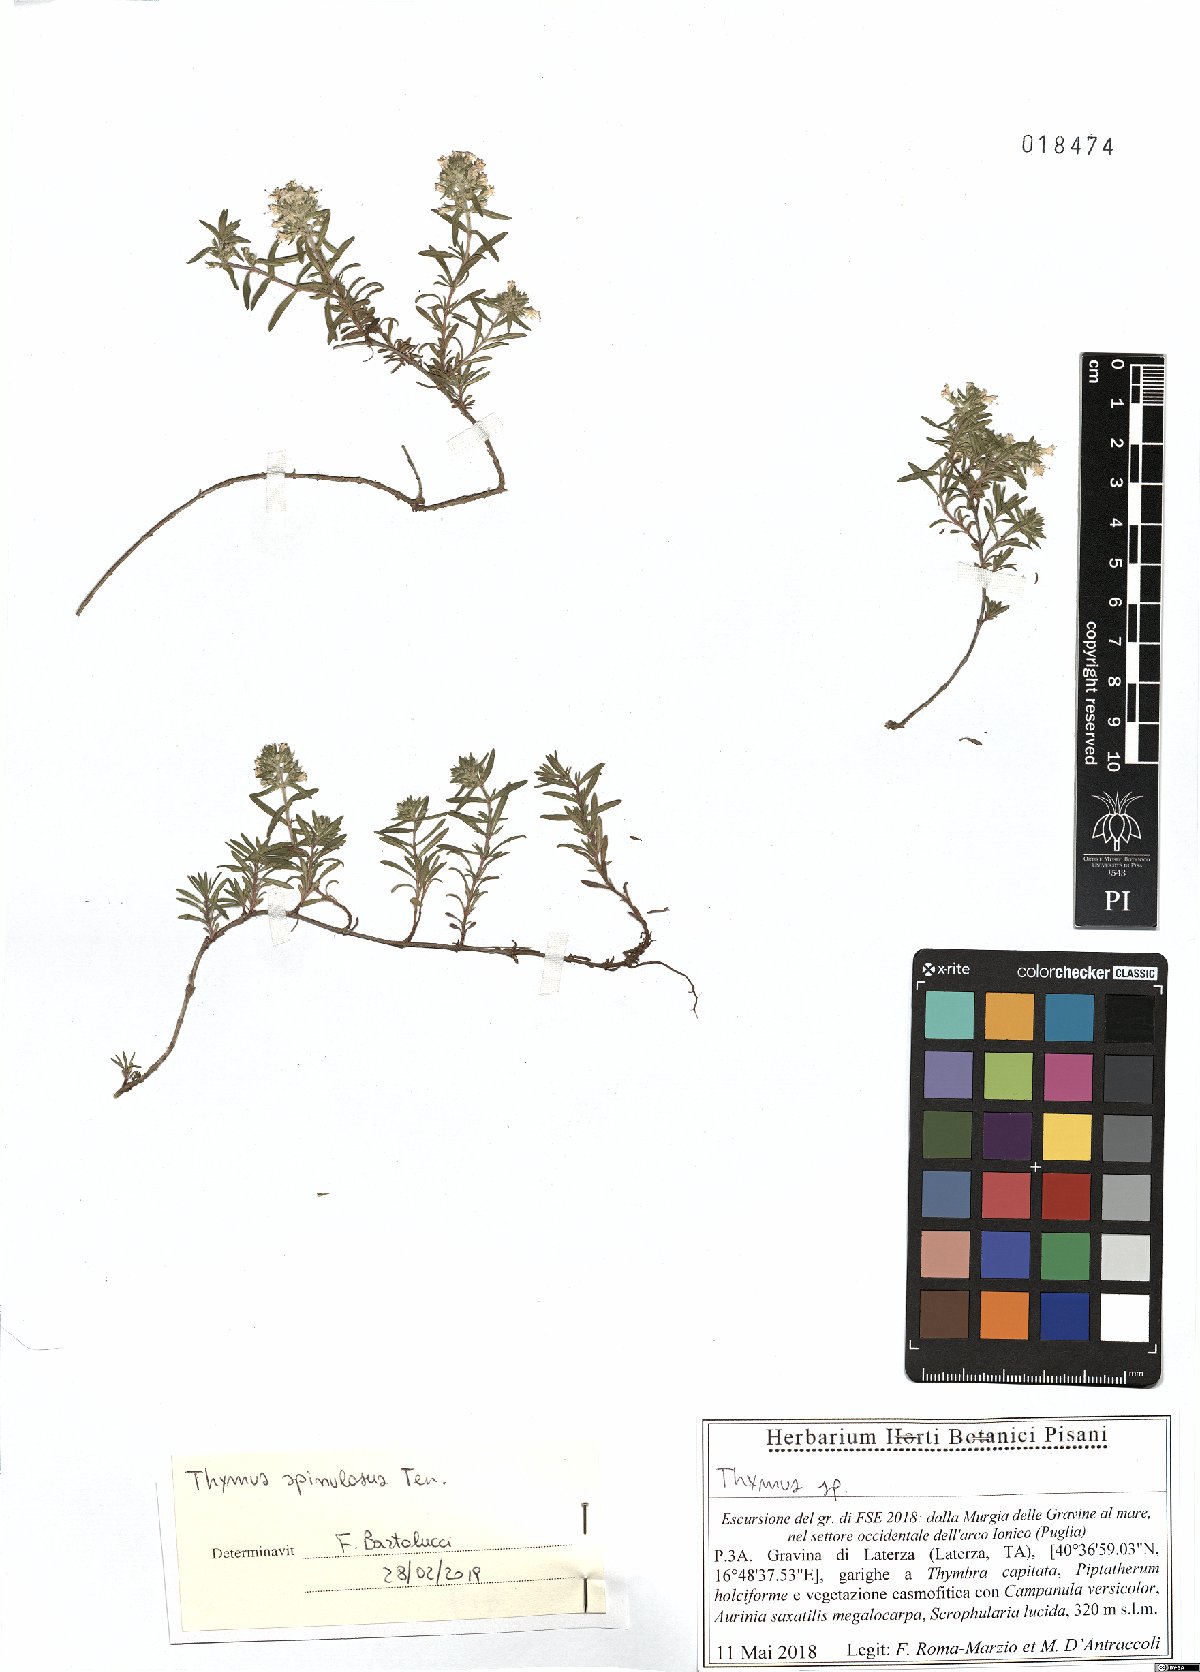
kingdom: Plantae
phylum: Tracheophyta
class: Magnoliopsida
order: Lamiales
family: Lamiaceae
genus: Thymus
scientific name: Thymus spinulosus
